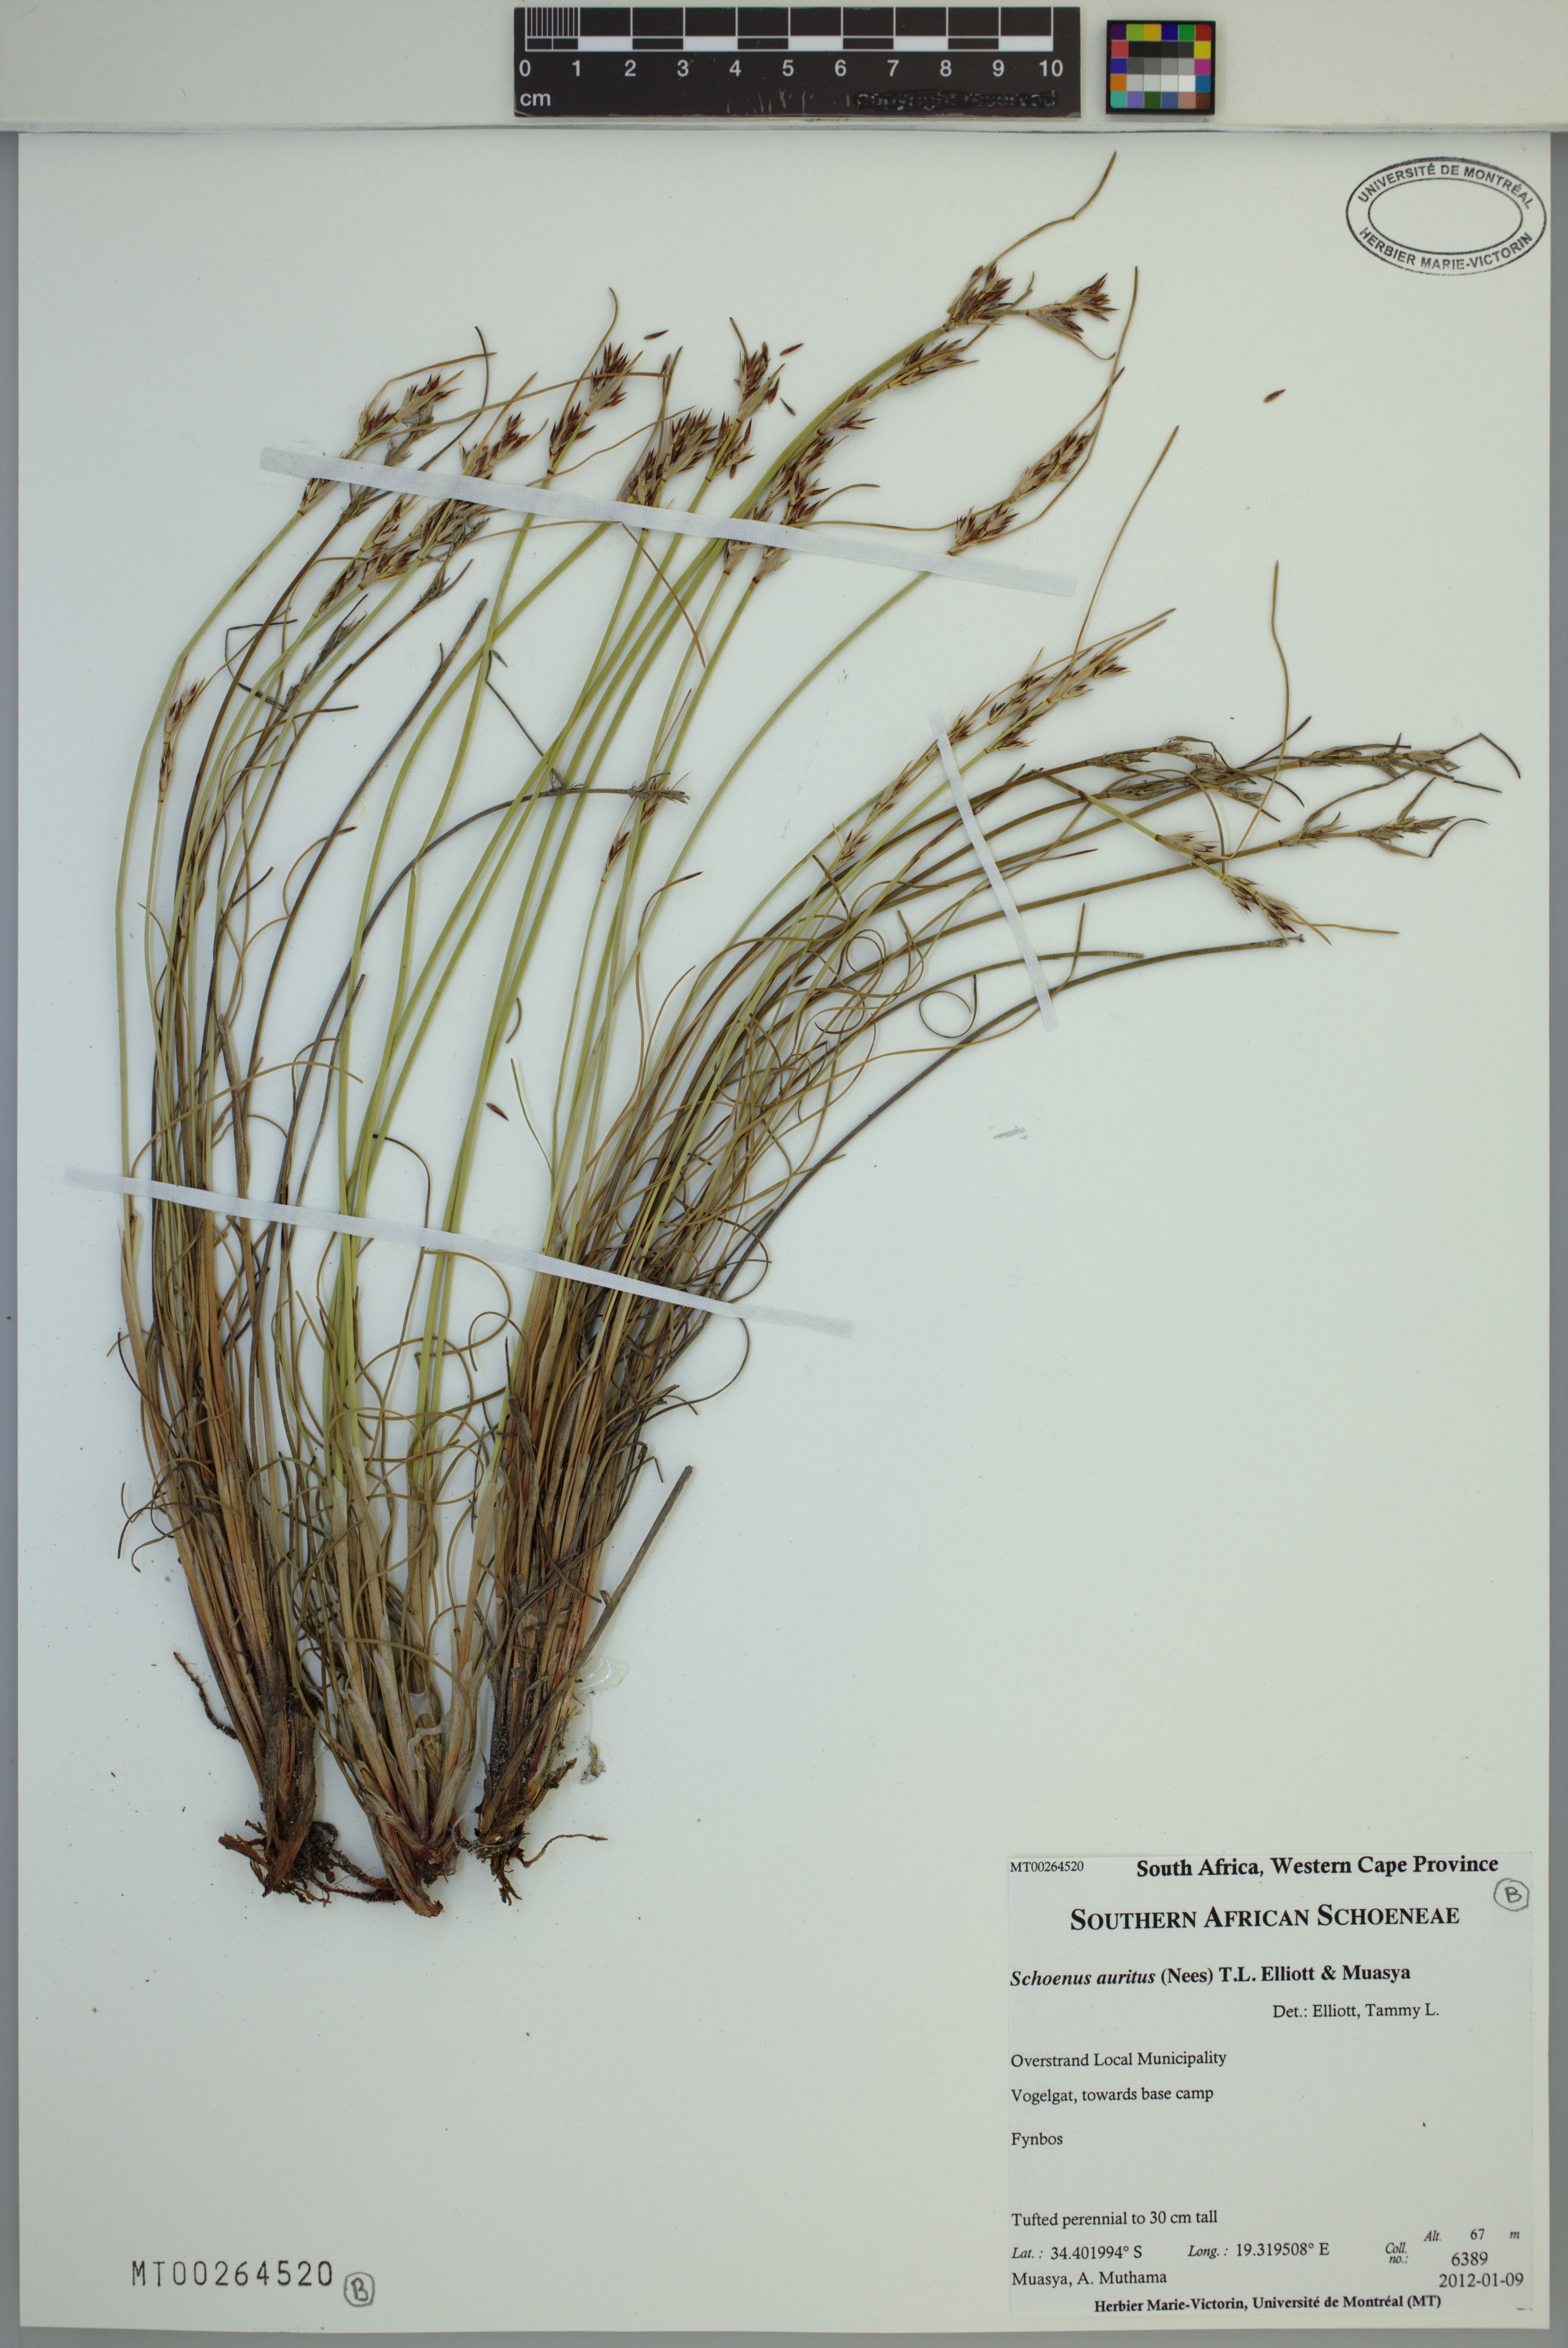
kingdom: Plantae
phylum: Tracheophyta
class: Liliopsida
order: Poales
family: Cyperaceae
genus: Schoenus
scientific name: Schoenus auritus
